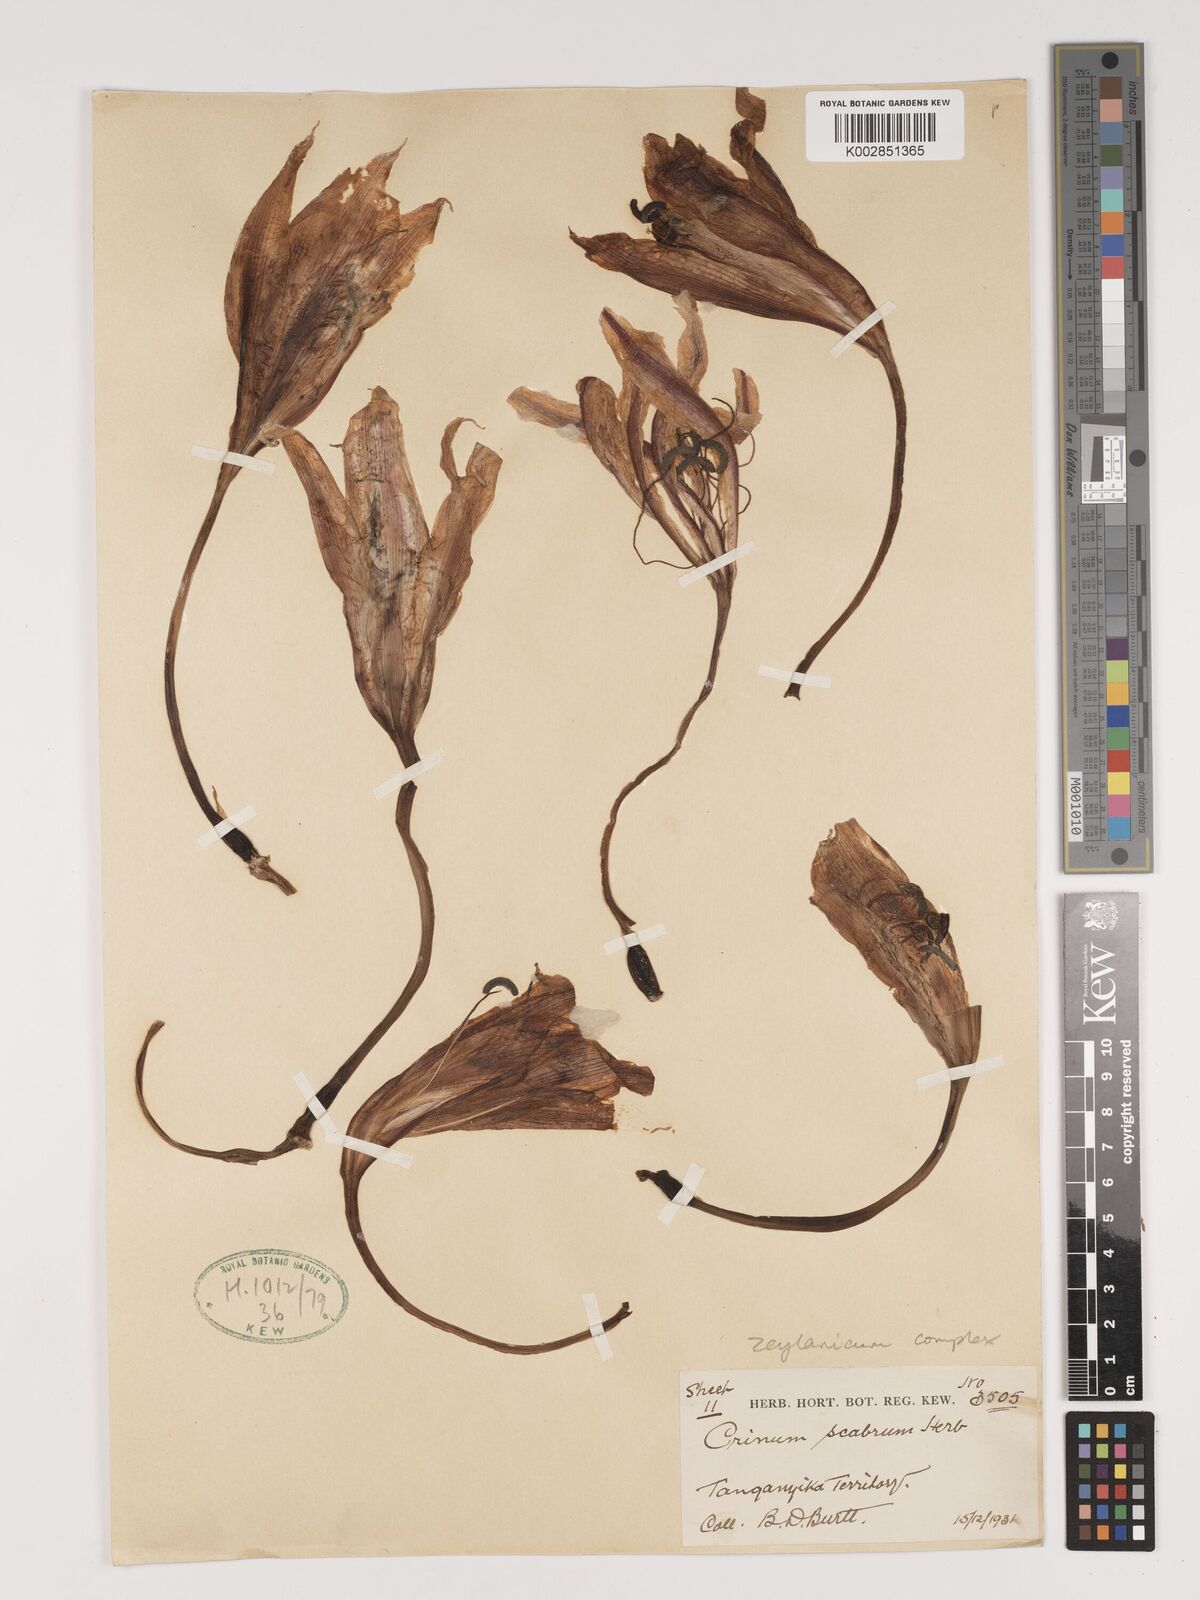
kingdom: Plantae
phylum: Tracheophyta
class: Liliopsida
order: Asparagales
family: Amaryllidaceae
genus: Crinum
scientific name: Crinum zeylanicum
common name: Ceylon swamplily
